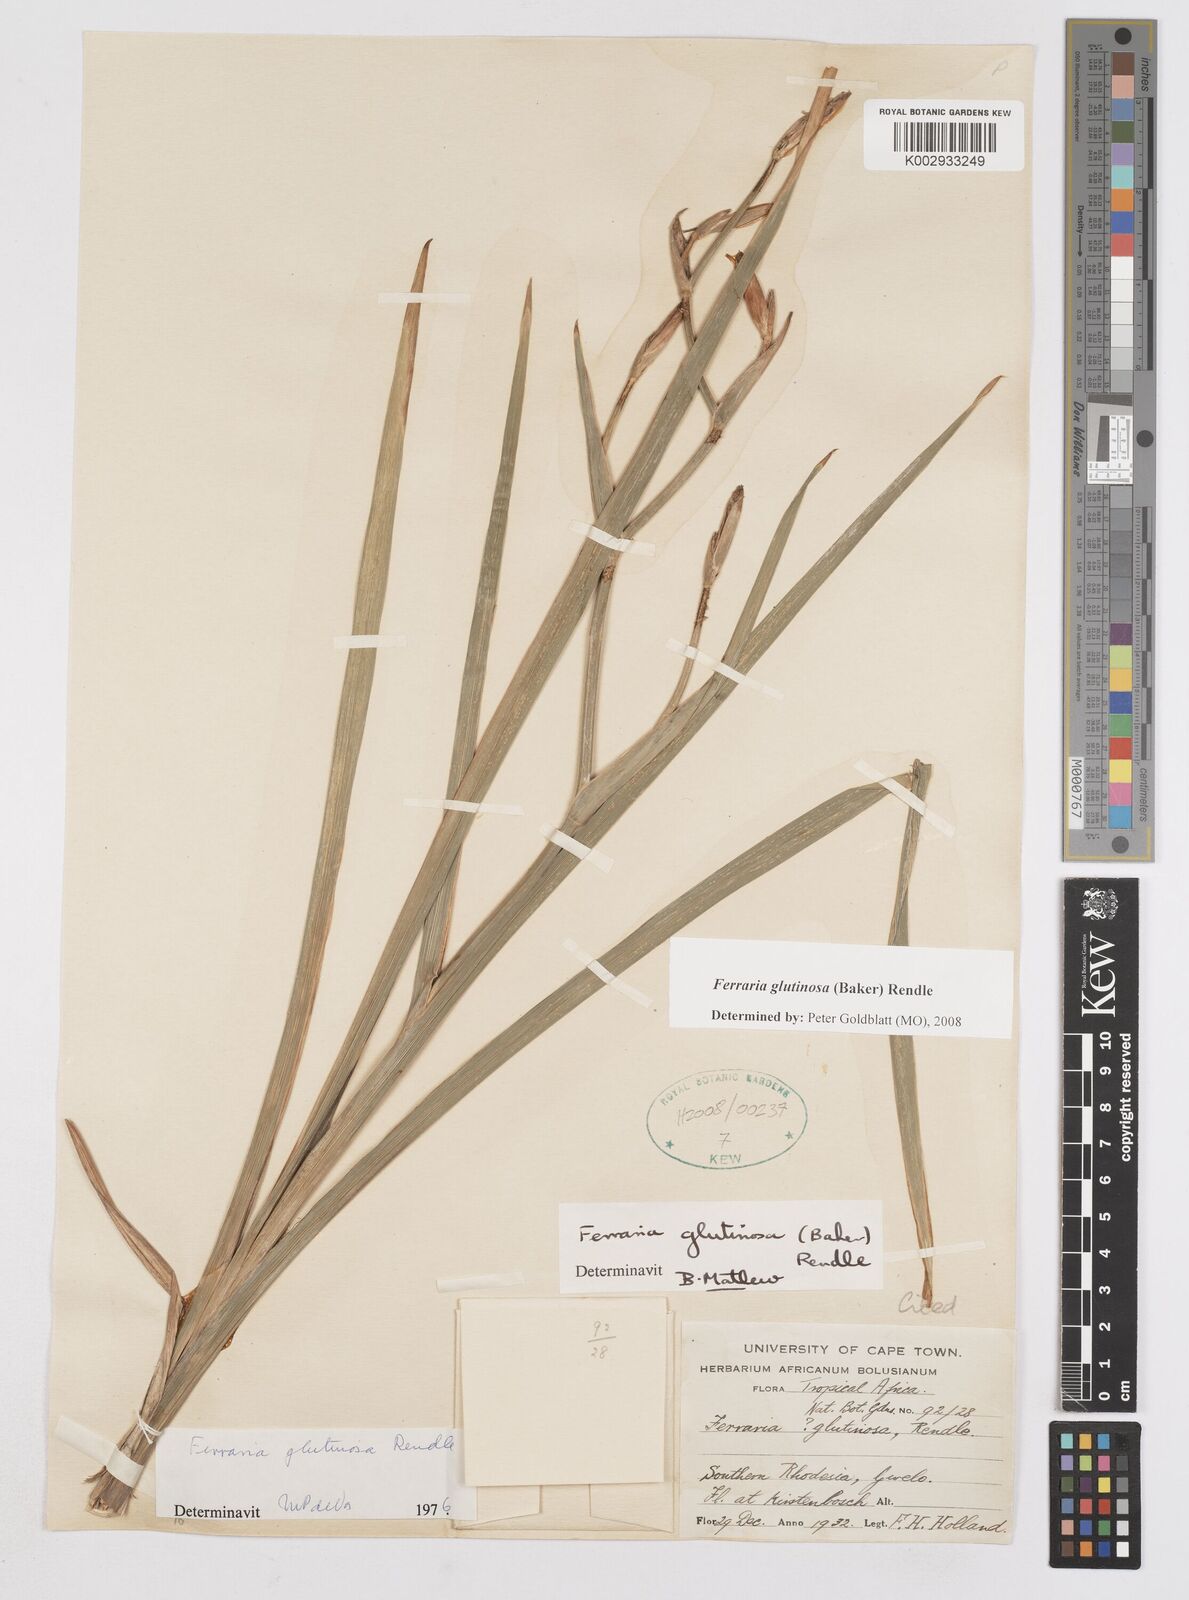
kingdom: Plantae
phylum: Tracheophyta
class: Liliopsida
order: Asparagales
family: Iridaceae
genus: Ferraria
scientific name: Ferraria glutinosa
